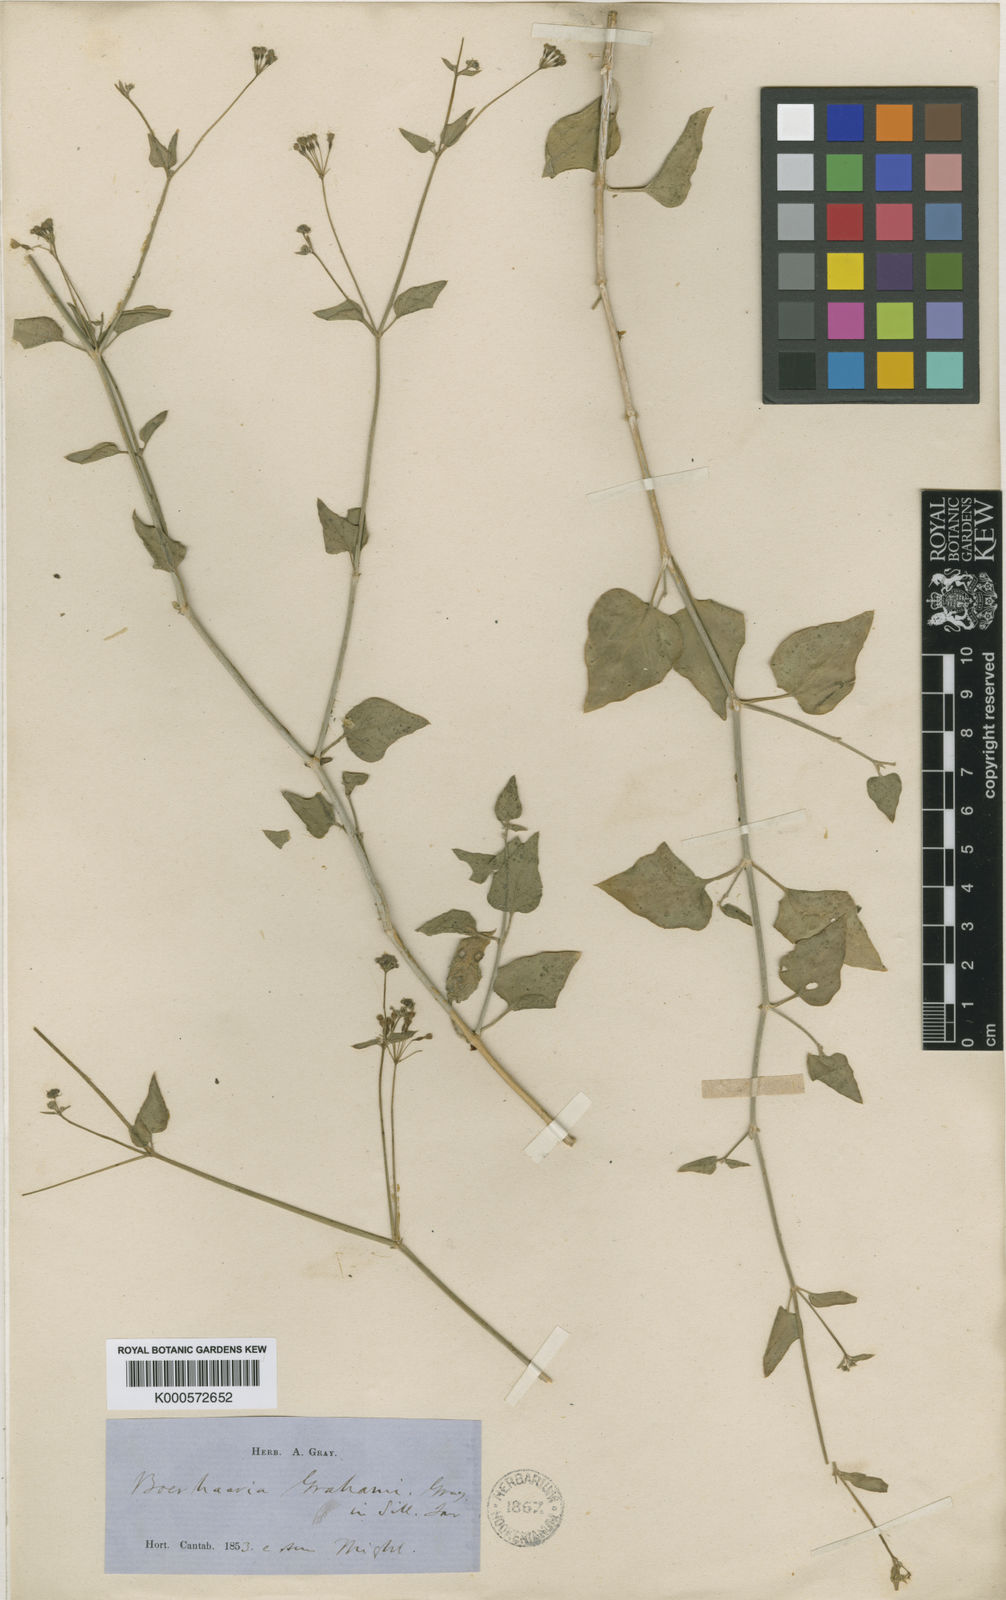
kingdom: Plantae
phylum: Tracheophyta
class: Magnoliopsida
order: Caryophyllales
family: Nyctaginaceae
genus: Boerhavia
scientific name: Boerhavia
